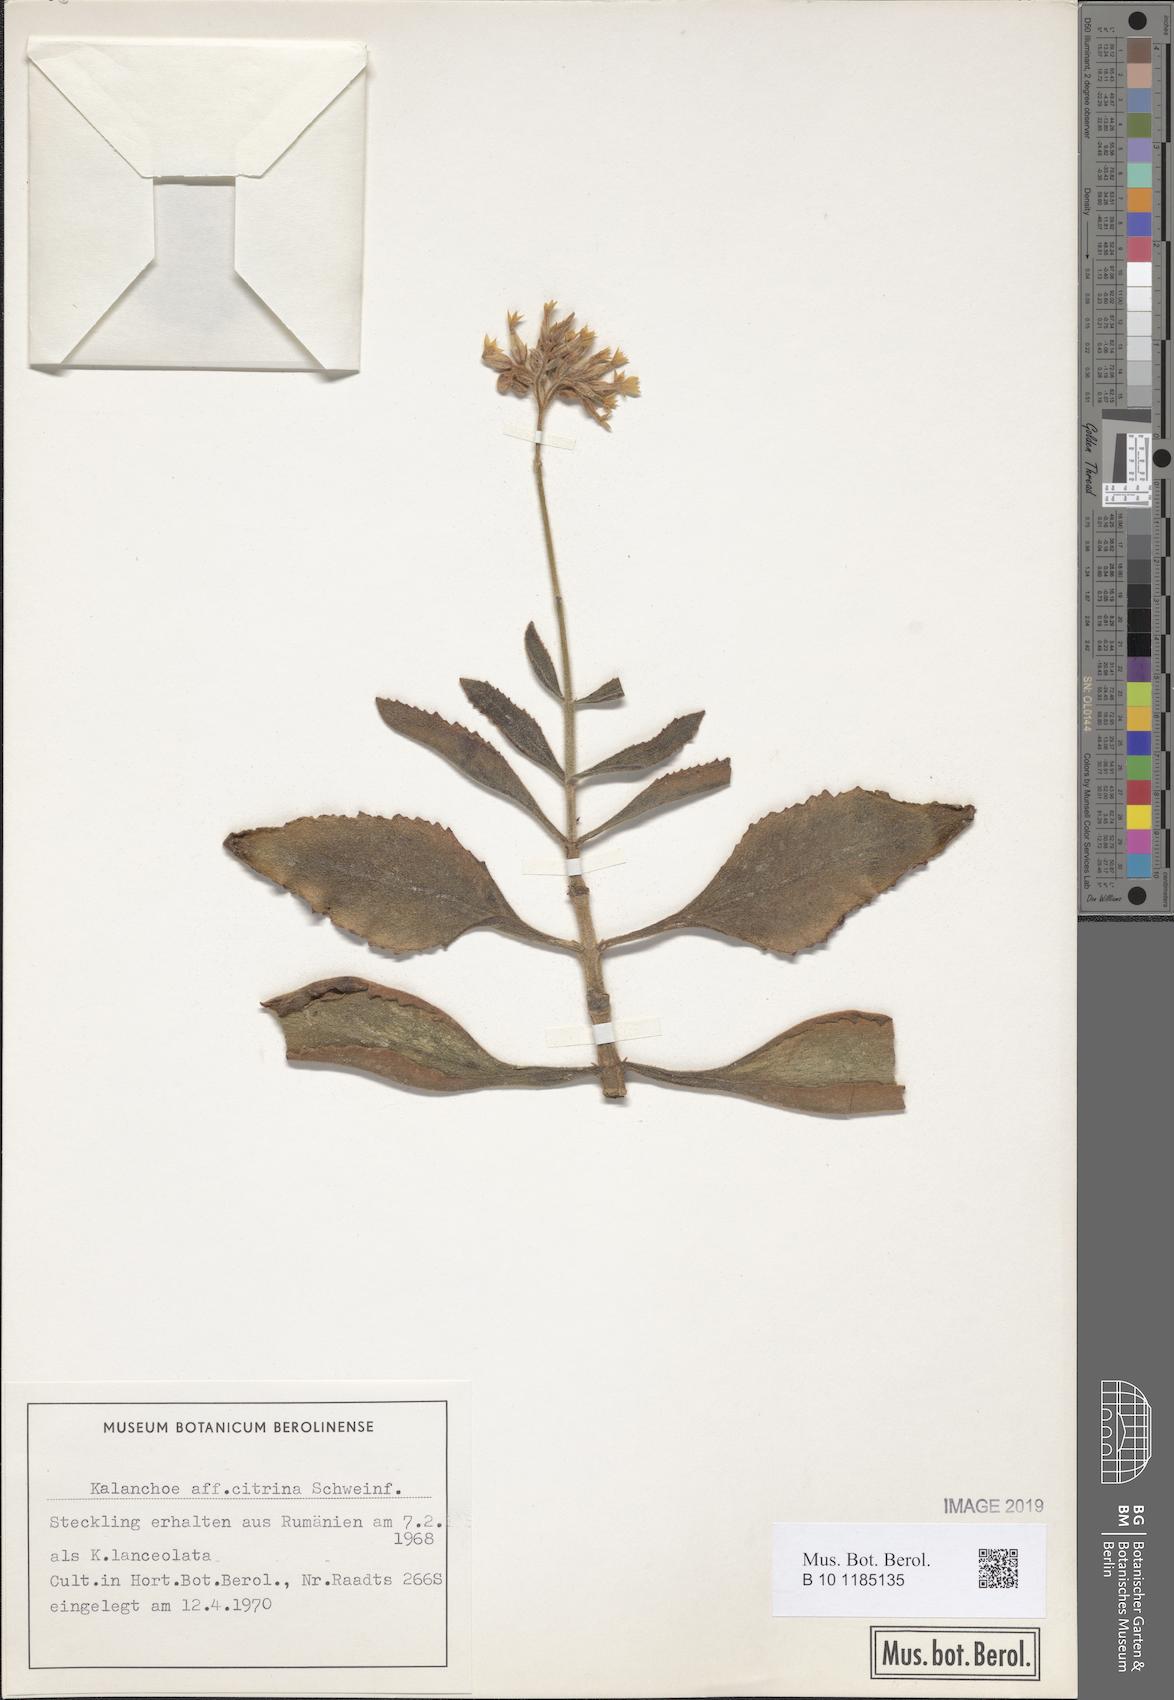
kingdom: Plantae
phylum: Tracheophyta
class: Magnoliopsida
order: Saxifragales
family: Crassulaceae
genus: Kalanchoe
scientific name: Kalanchoe citrina
